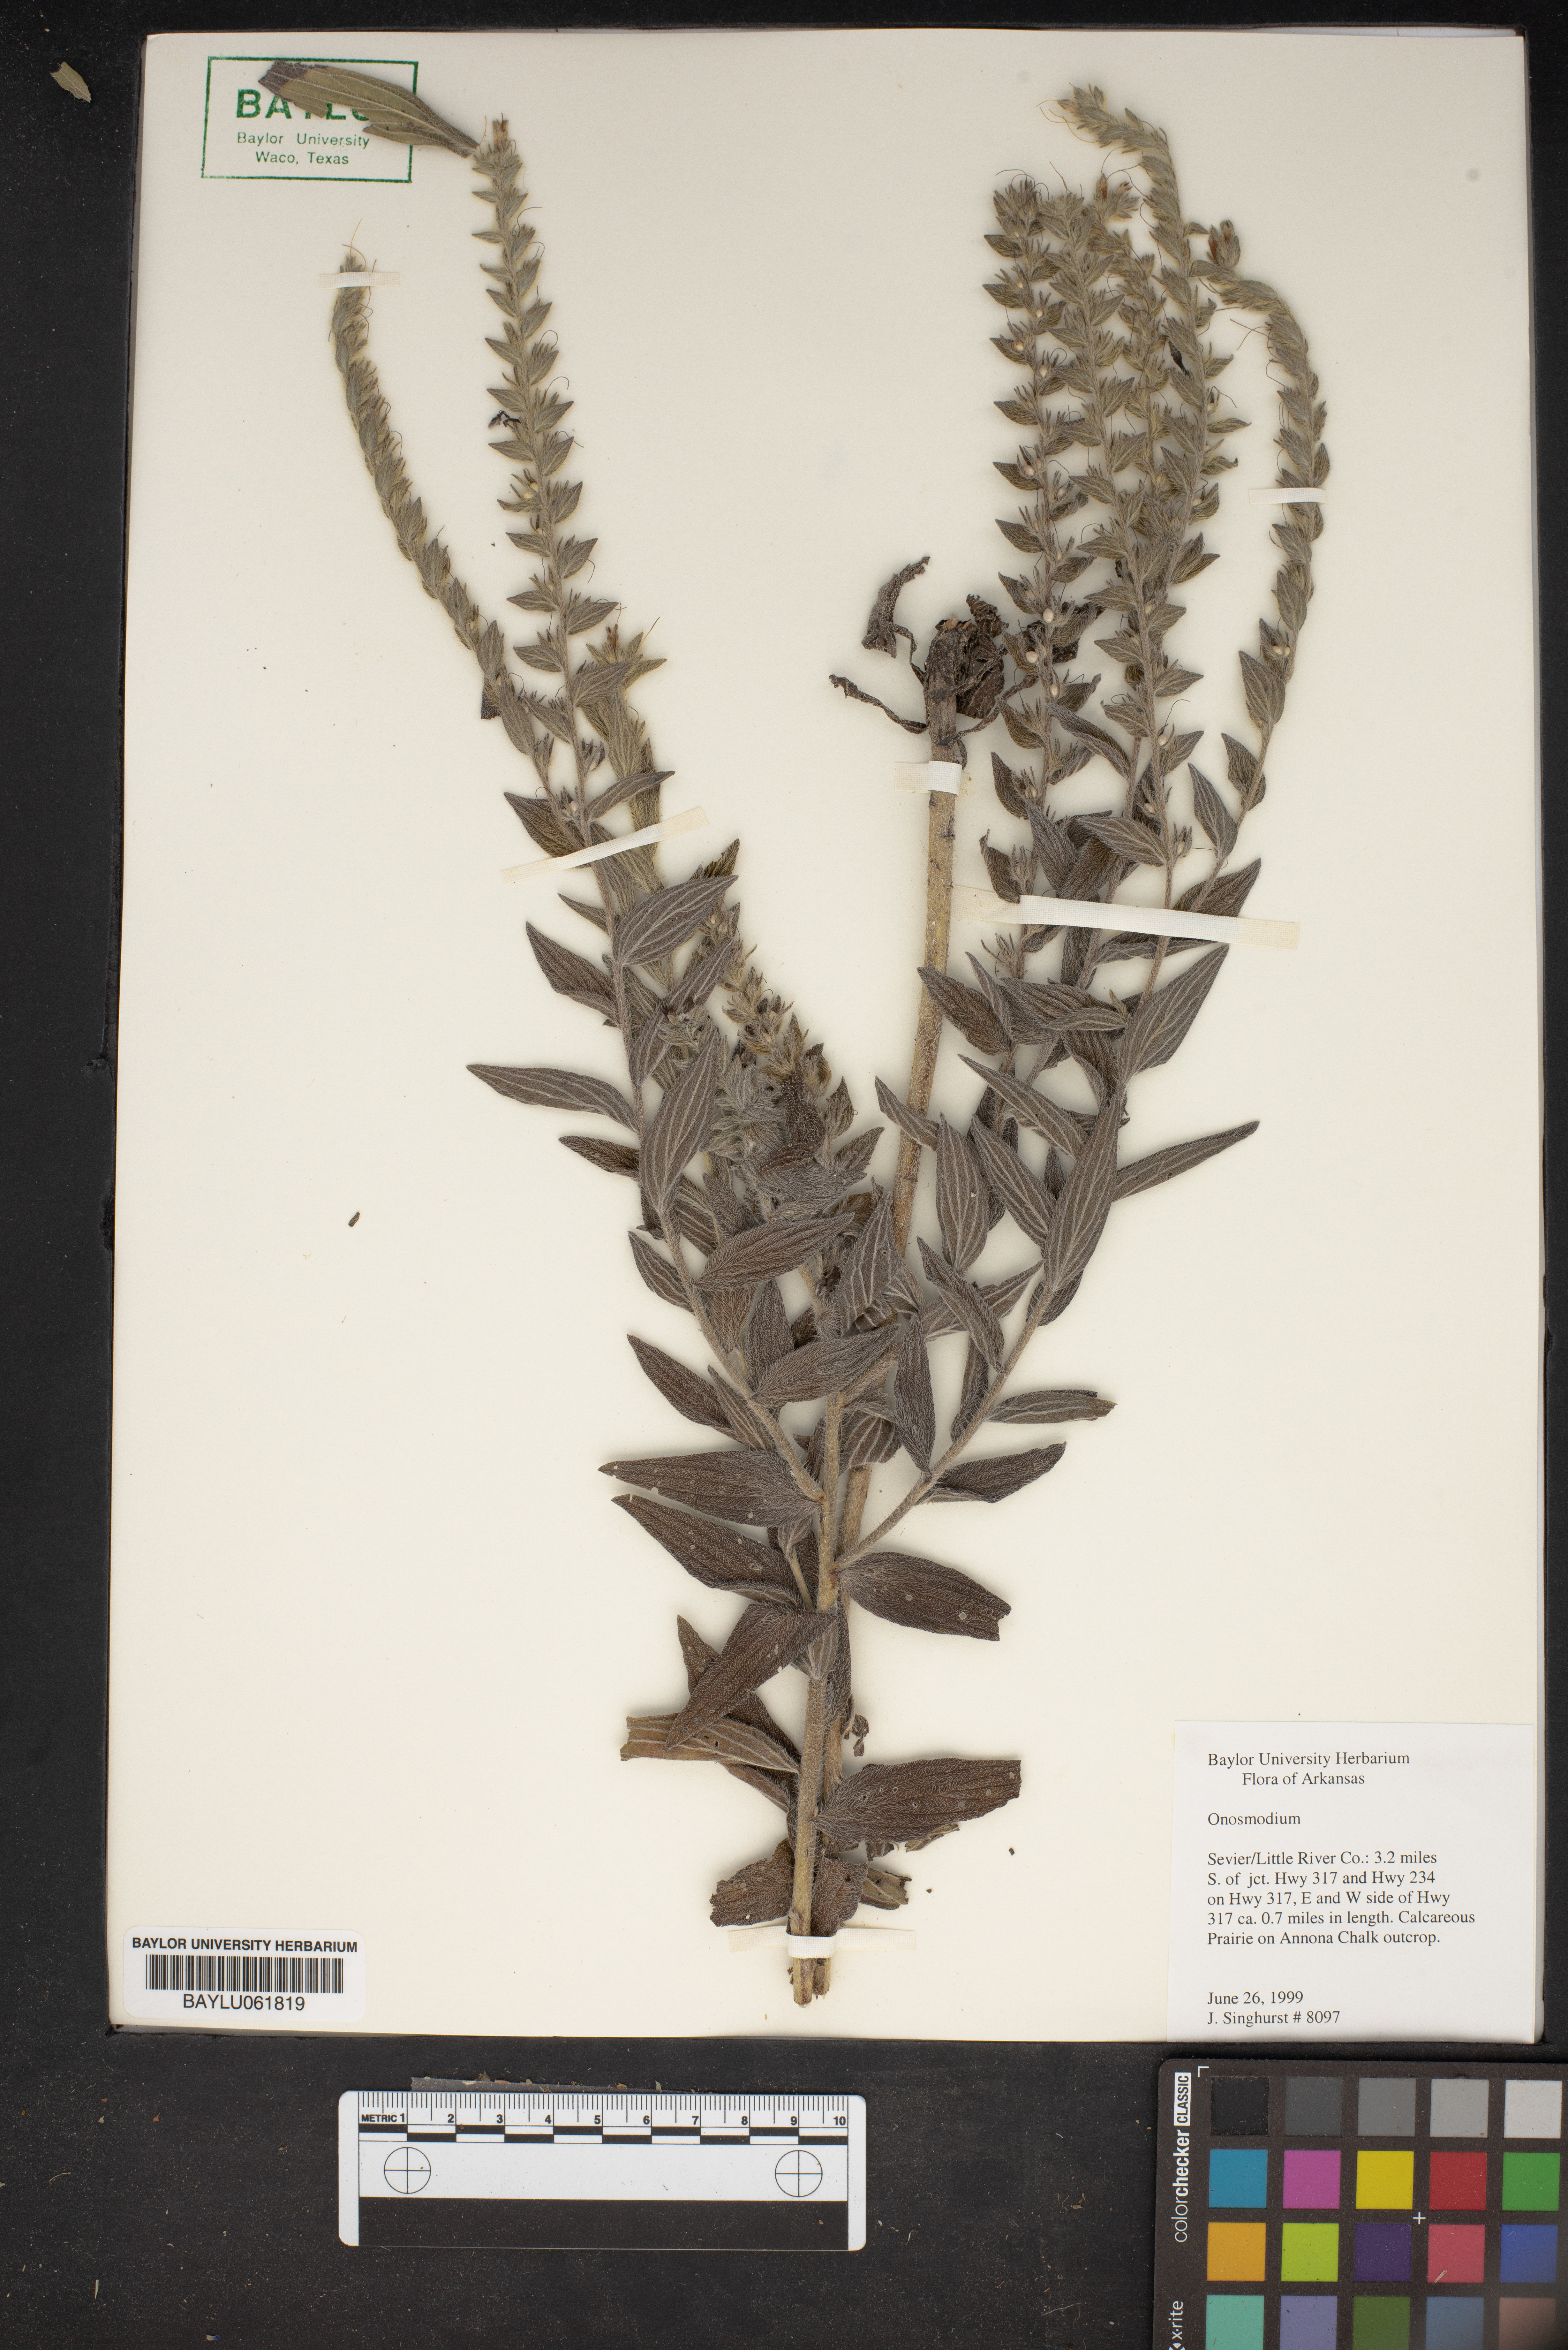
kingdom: Plantae
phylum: Tracheophyta
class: Magnoliopsida
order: Boraginales
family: Boraginaceae
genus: Lithospermum
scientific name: Lithospermum
